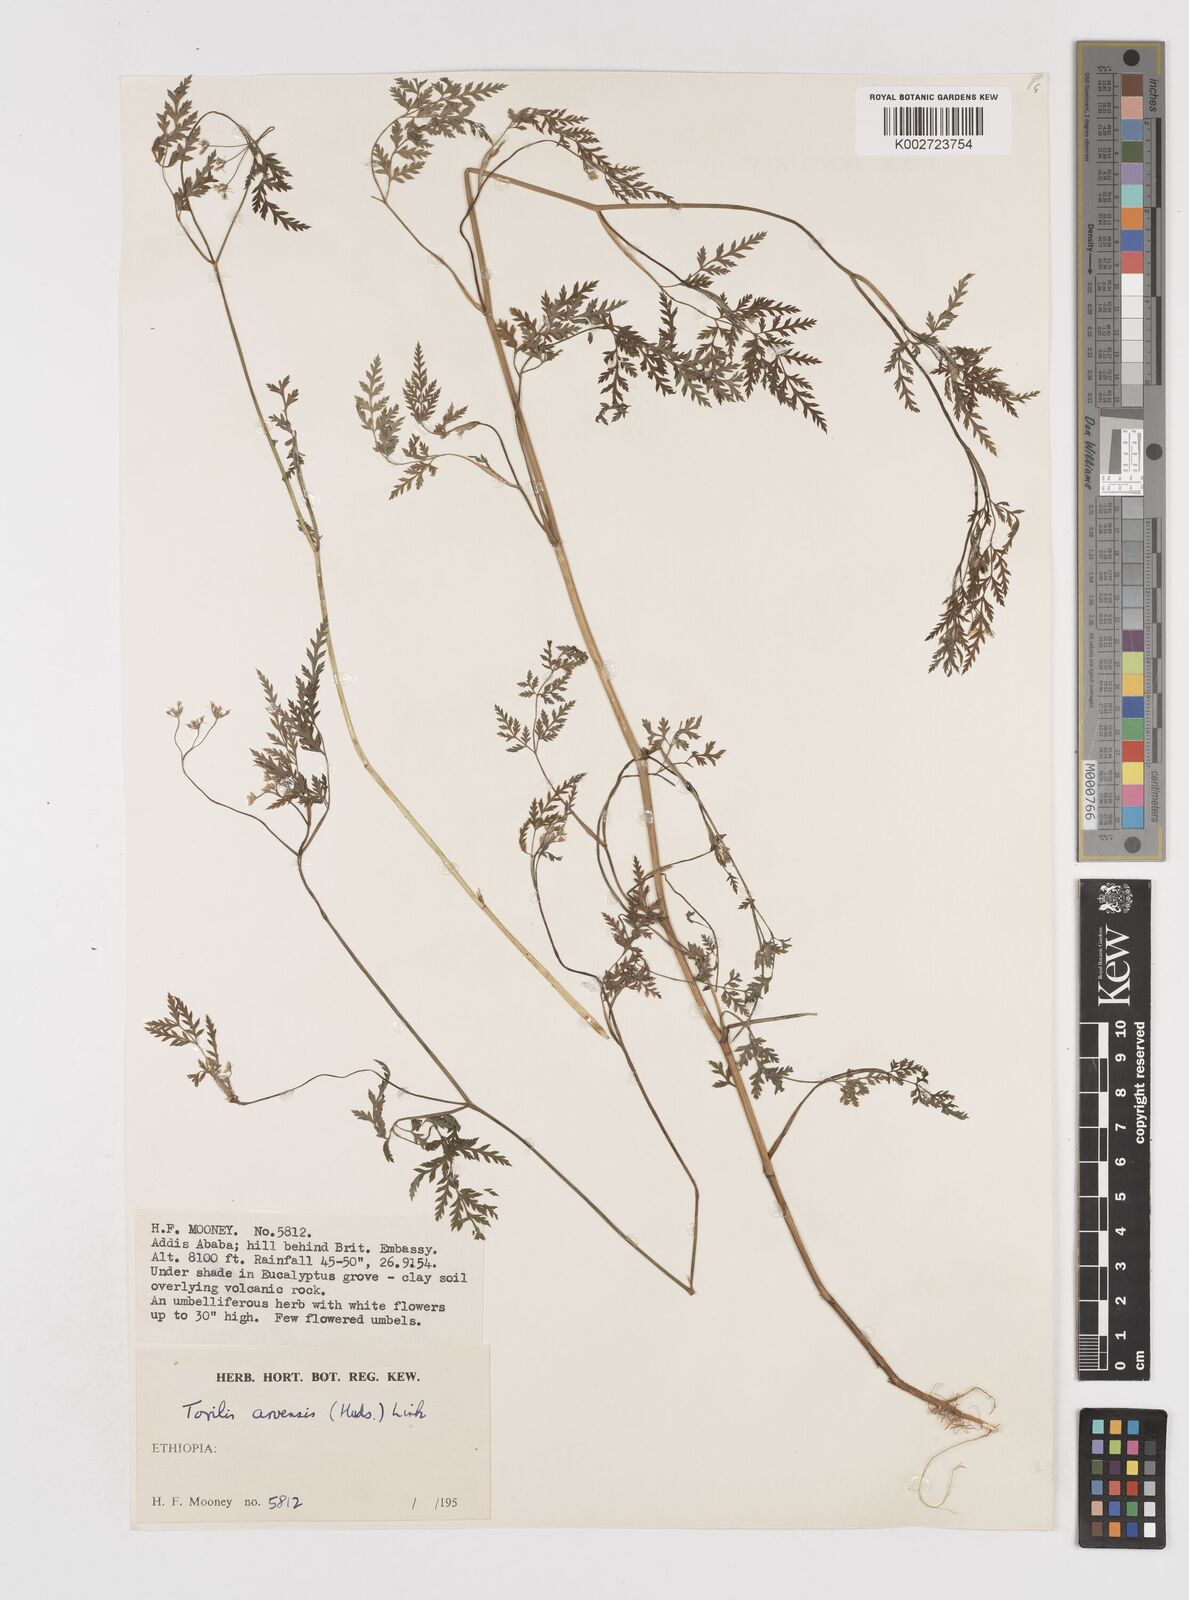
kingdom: Plantae
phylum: Tracheophyta
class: Magnoliopsida
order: Apiales
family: Apiaceae
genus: Torilis
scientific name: Torilis arvensis
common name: Spreading hedge-parsley
